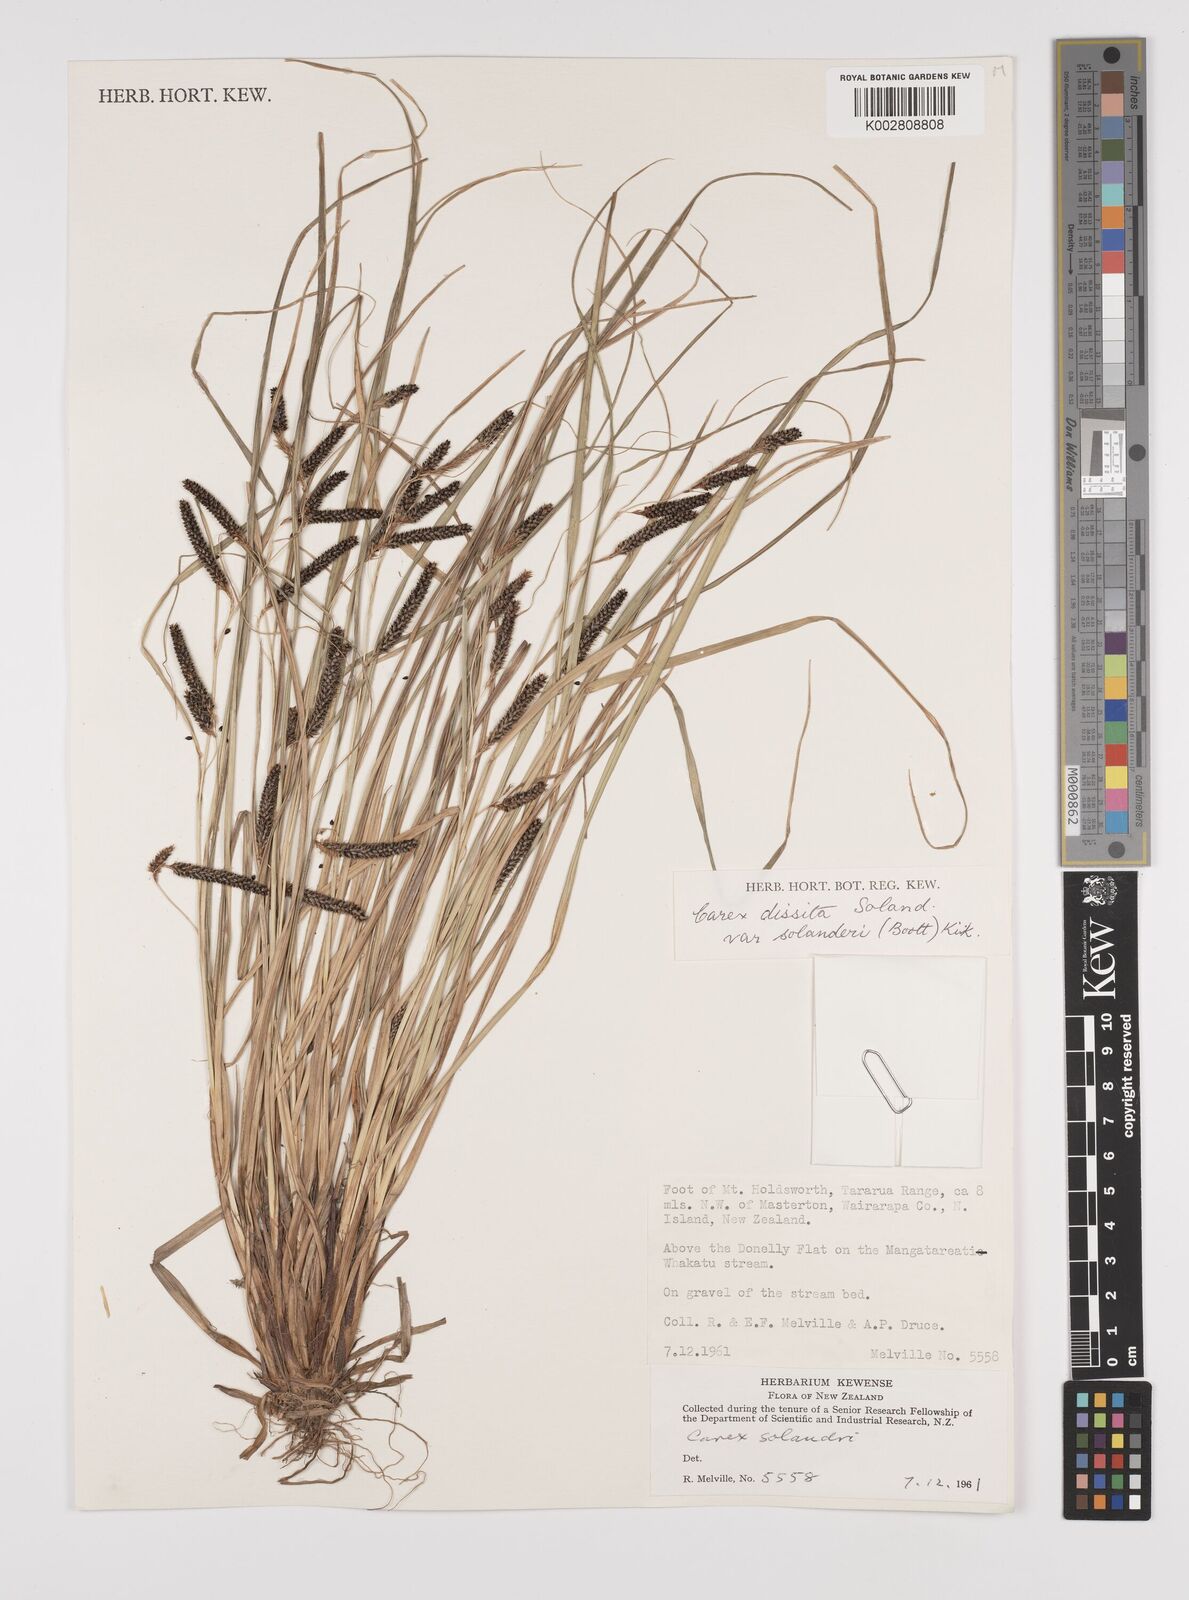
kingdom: Plantae
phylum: Tracheophyta
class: Liliopsida
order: Poales
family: Cyperaceae
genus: Carex
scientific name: Carex dissita
